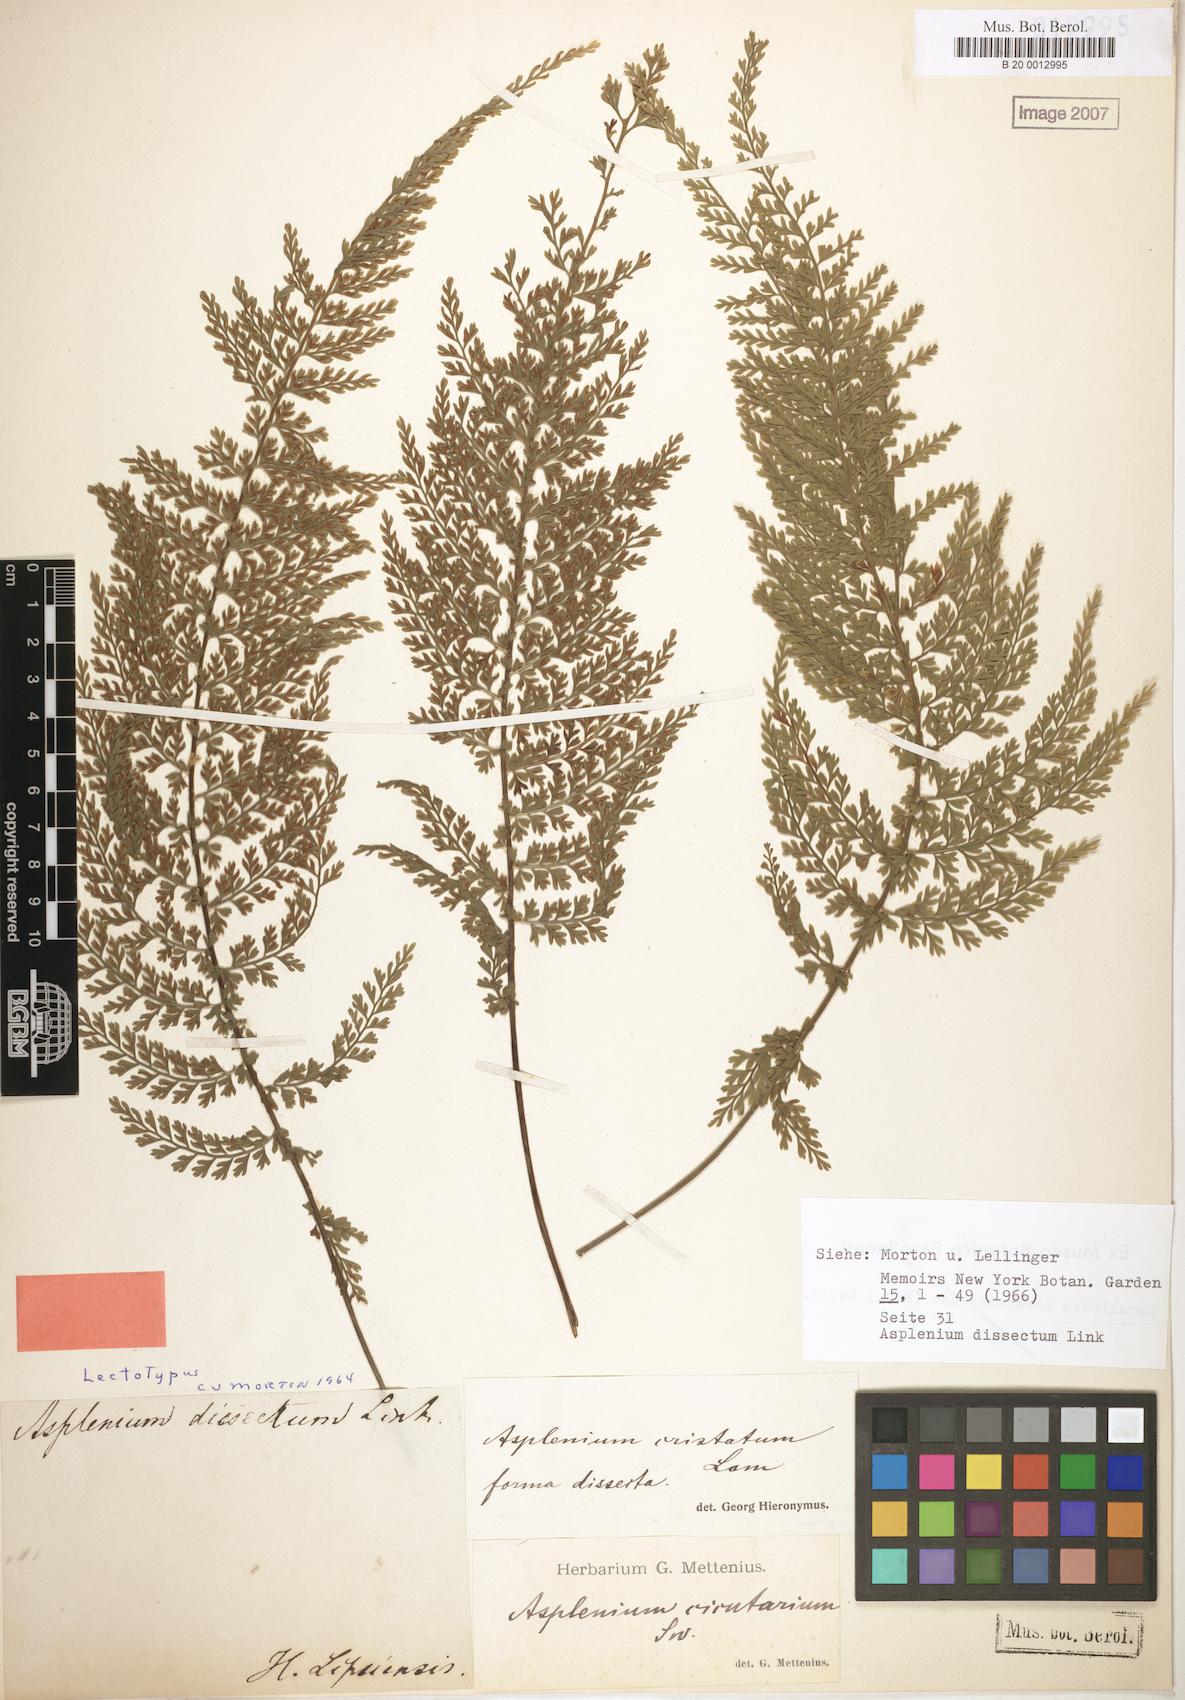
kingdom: Plantae
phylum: Tracheophyta
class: Polypodiopsida
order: Polypodiales
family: Aspleniaceae
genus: Asplenium
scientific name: Asplenium cristatum
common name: Parsley spleenwort
